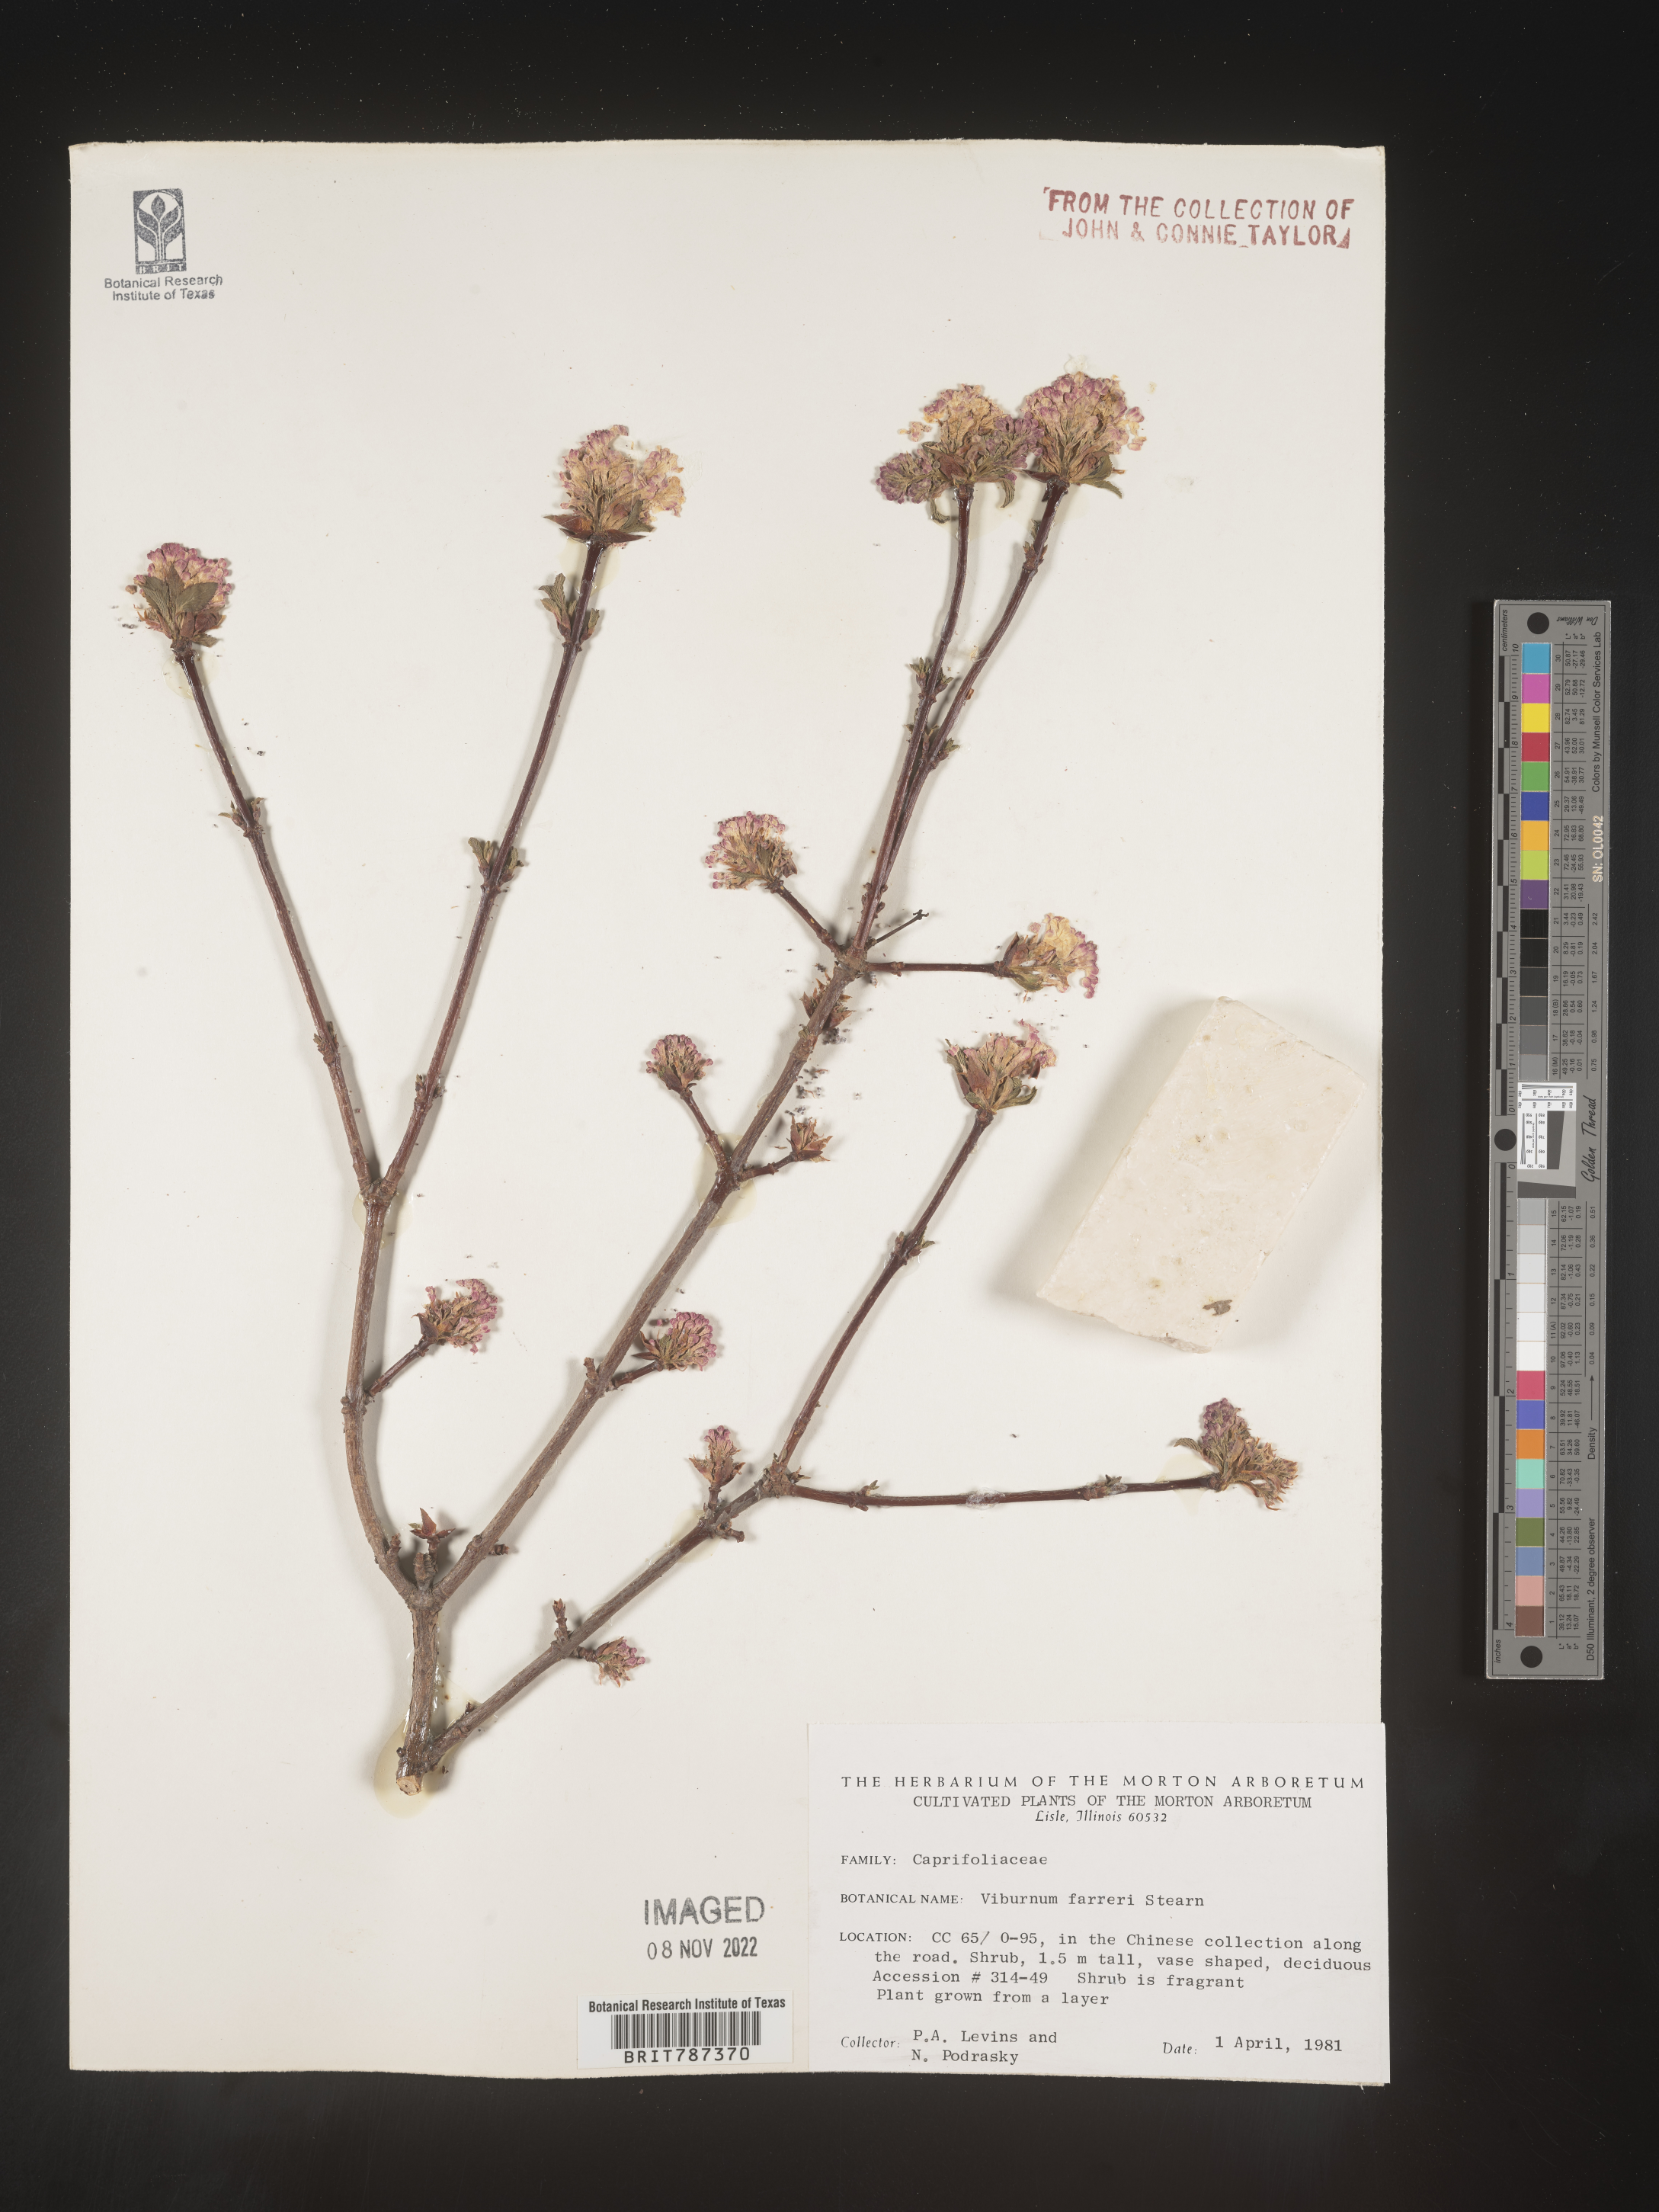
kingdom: Plantae
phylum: Tracheophyta
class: Magnoliopsida
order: Dipsacales
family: Viburnaceae
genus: Viburnum
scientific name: Viburnum
